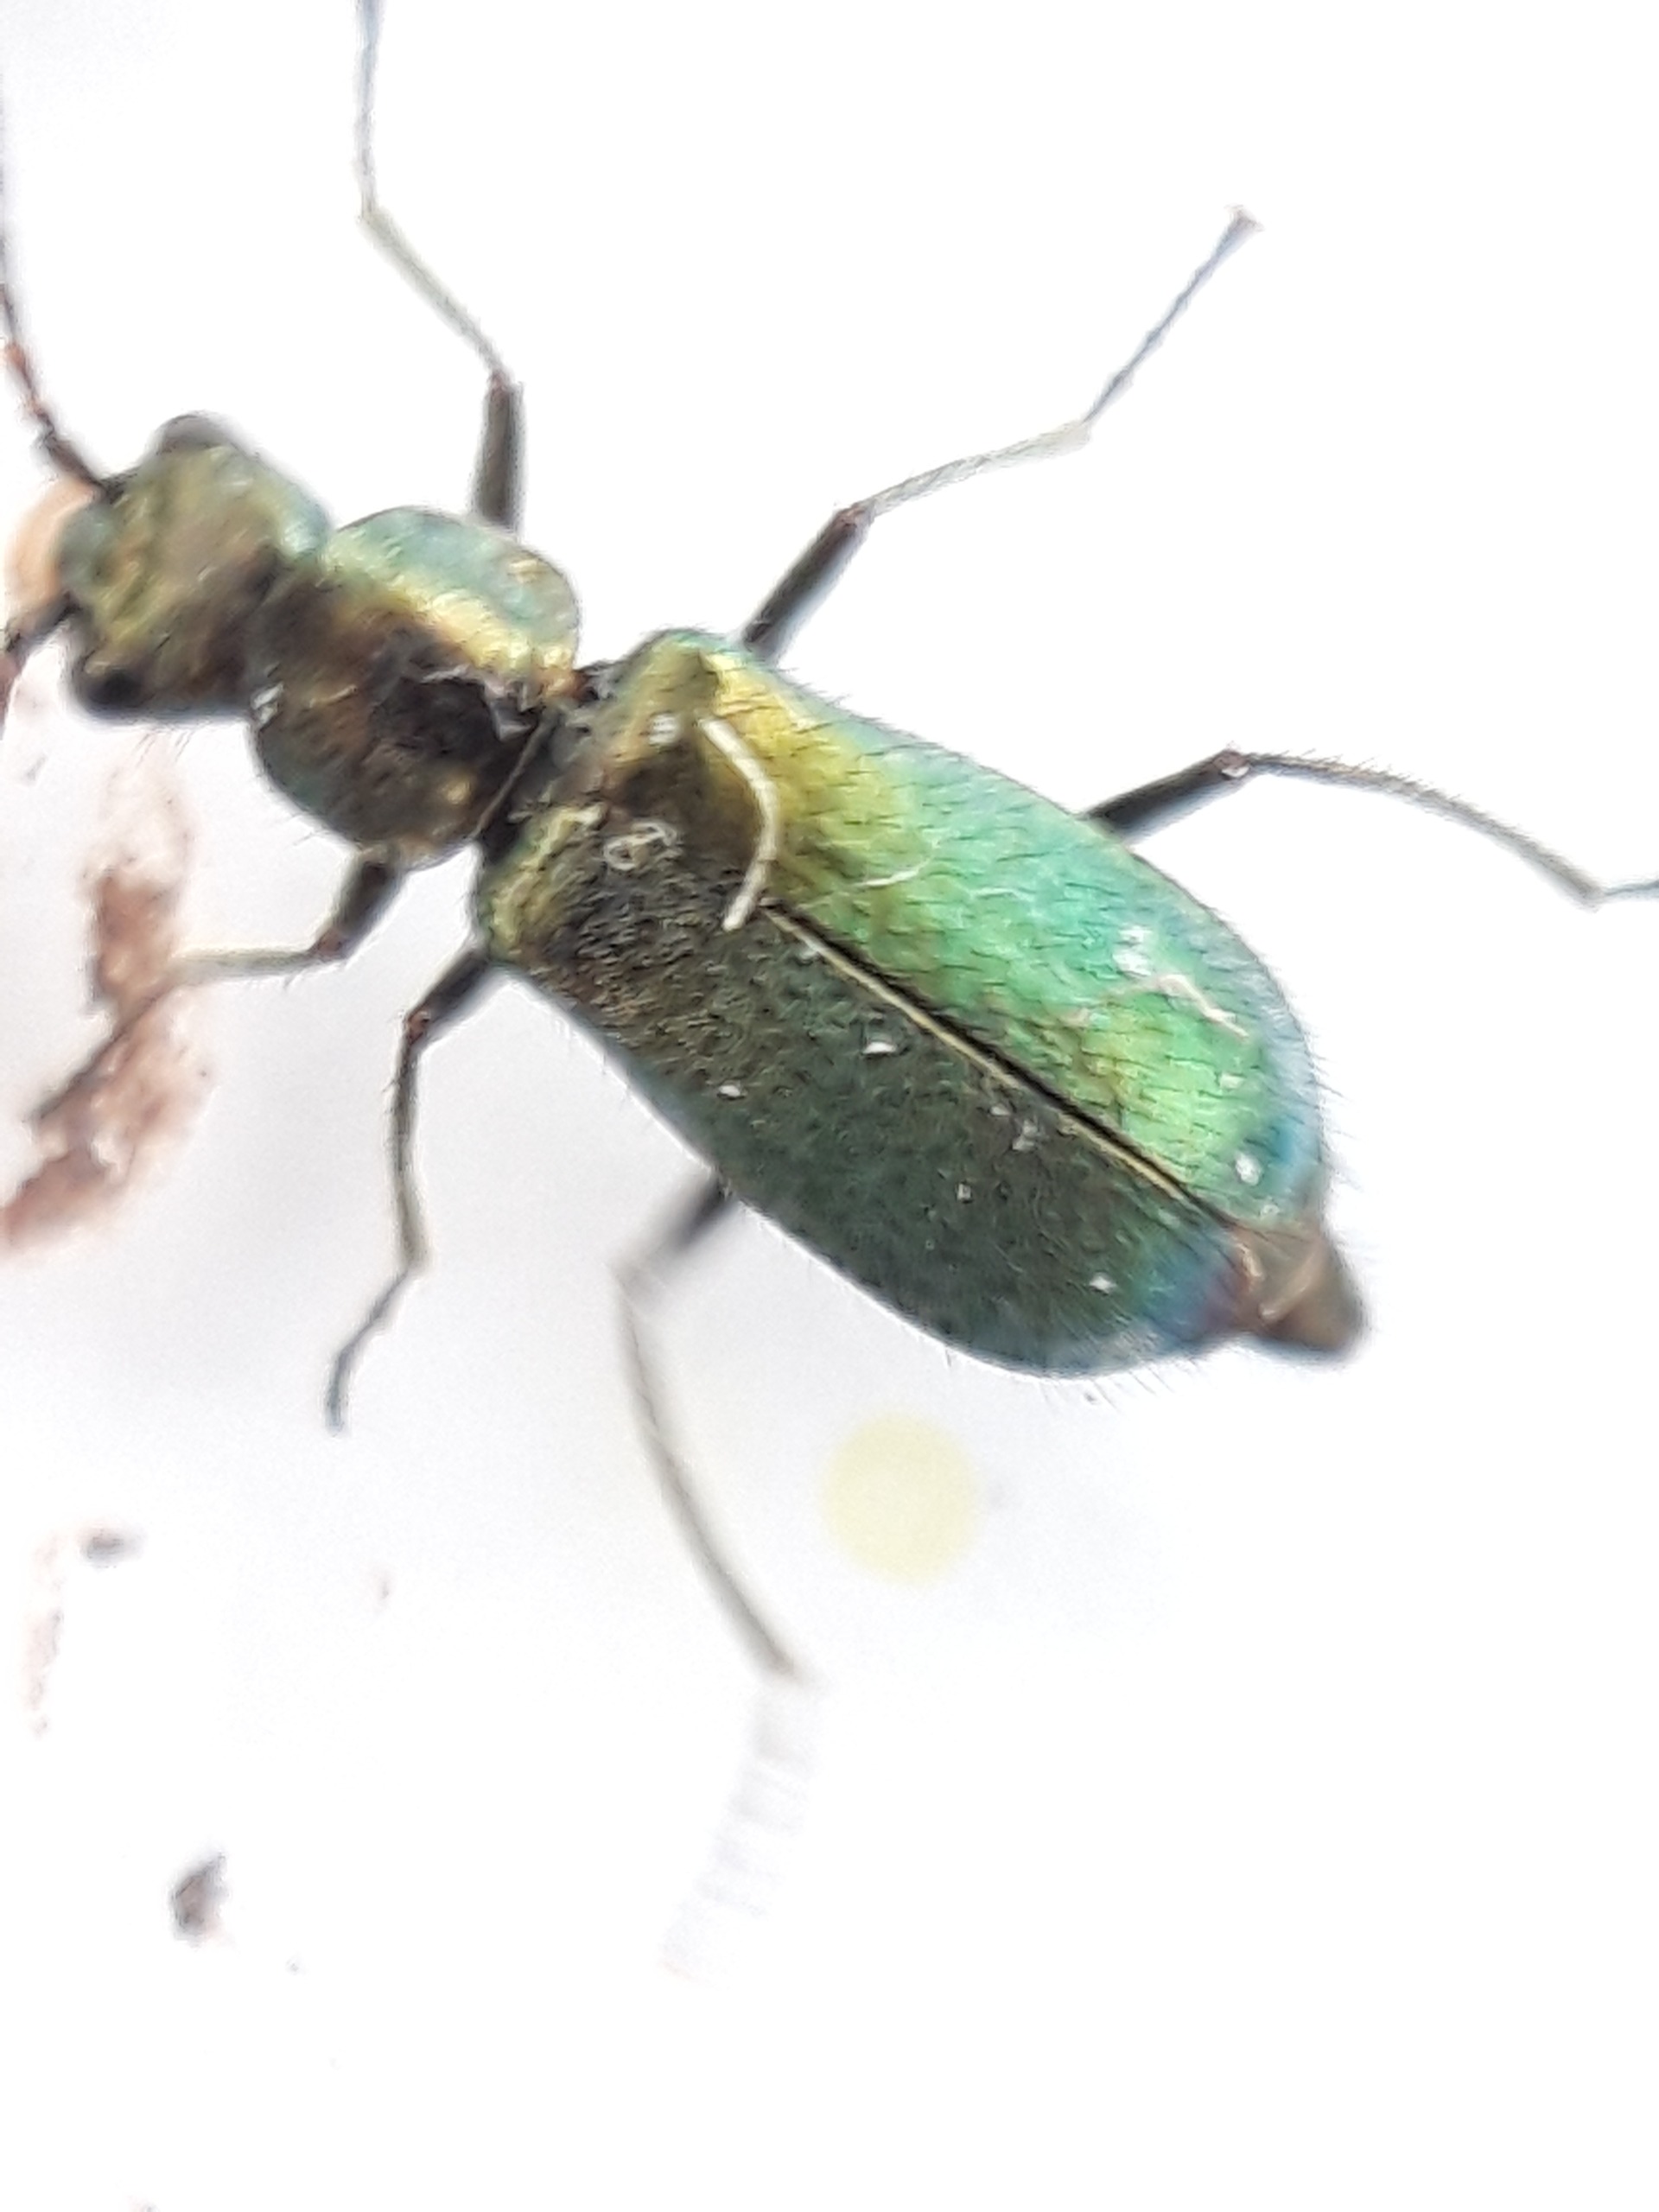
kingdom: Animalia
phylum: Arthropoda
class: Insecta
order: Coleoptera
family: Malachiidae
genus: Cordylepherus
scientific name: Cordylepherus viridis
